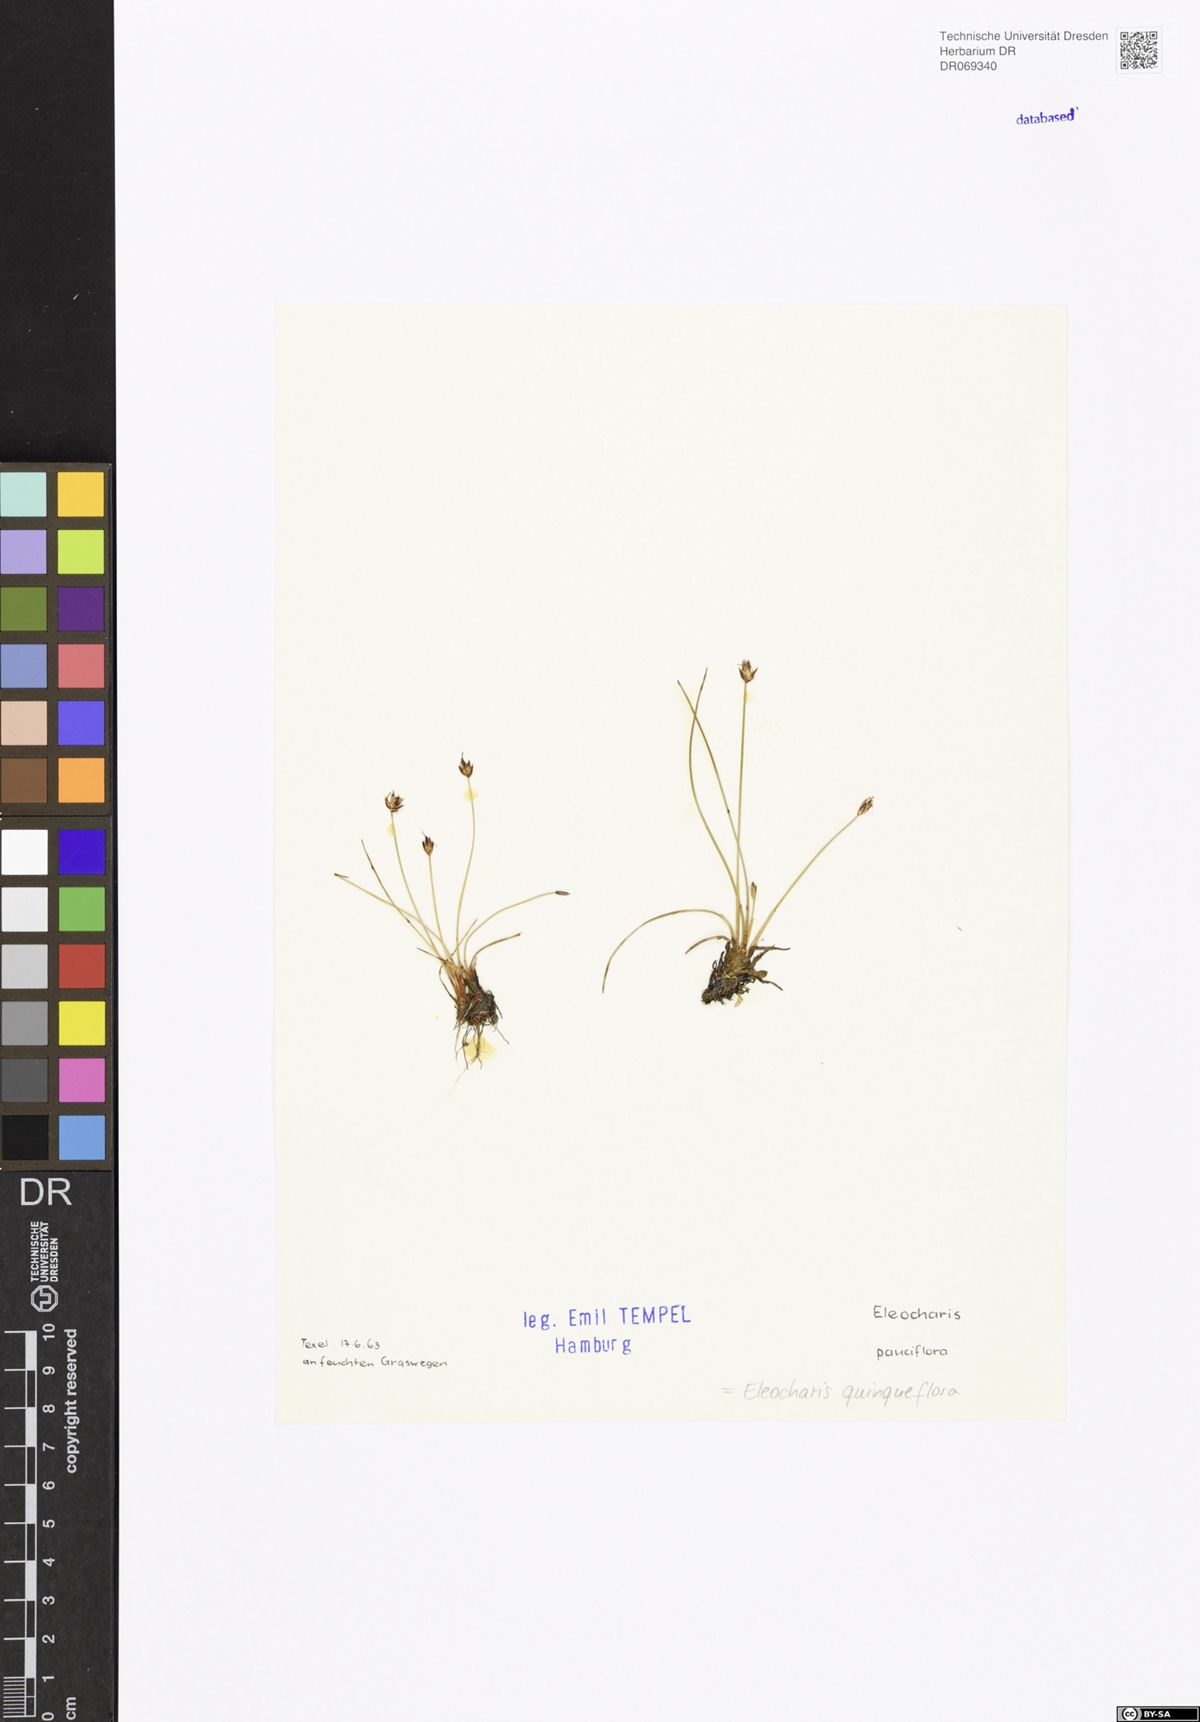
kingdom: Plantae
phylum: Tracheophyta
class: Liliopsida
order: Poales
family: Cyperaceae
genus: Eleocharis
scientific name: Eleocharis quinqueflora
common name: Few-flowered spike-rush
